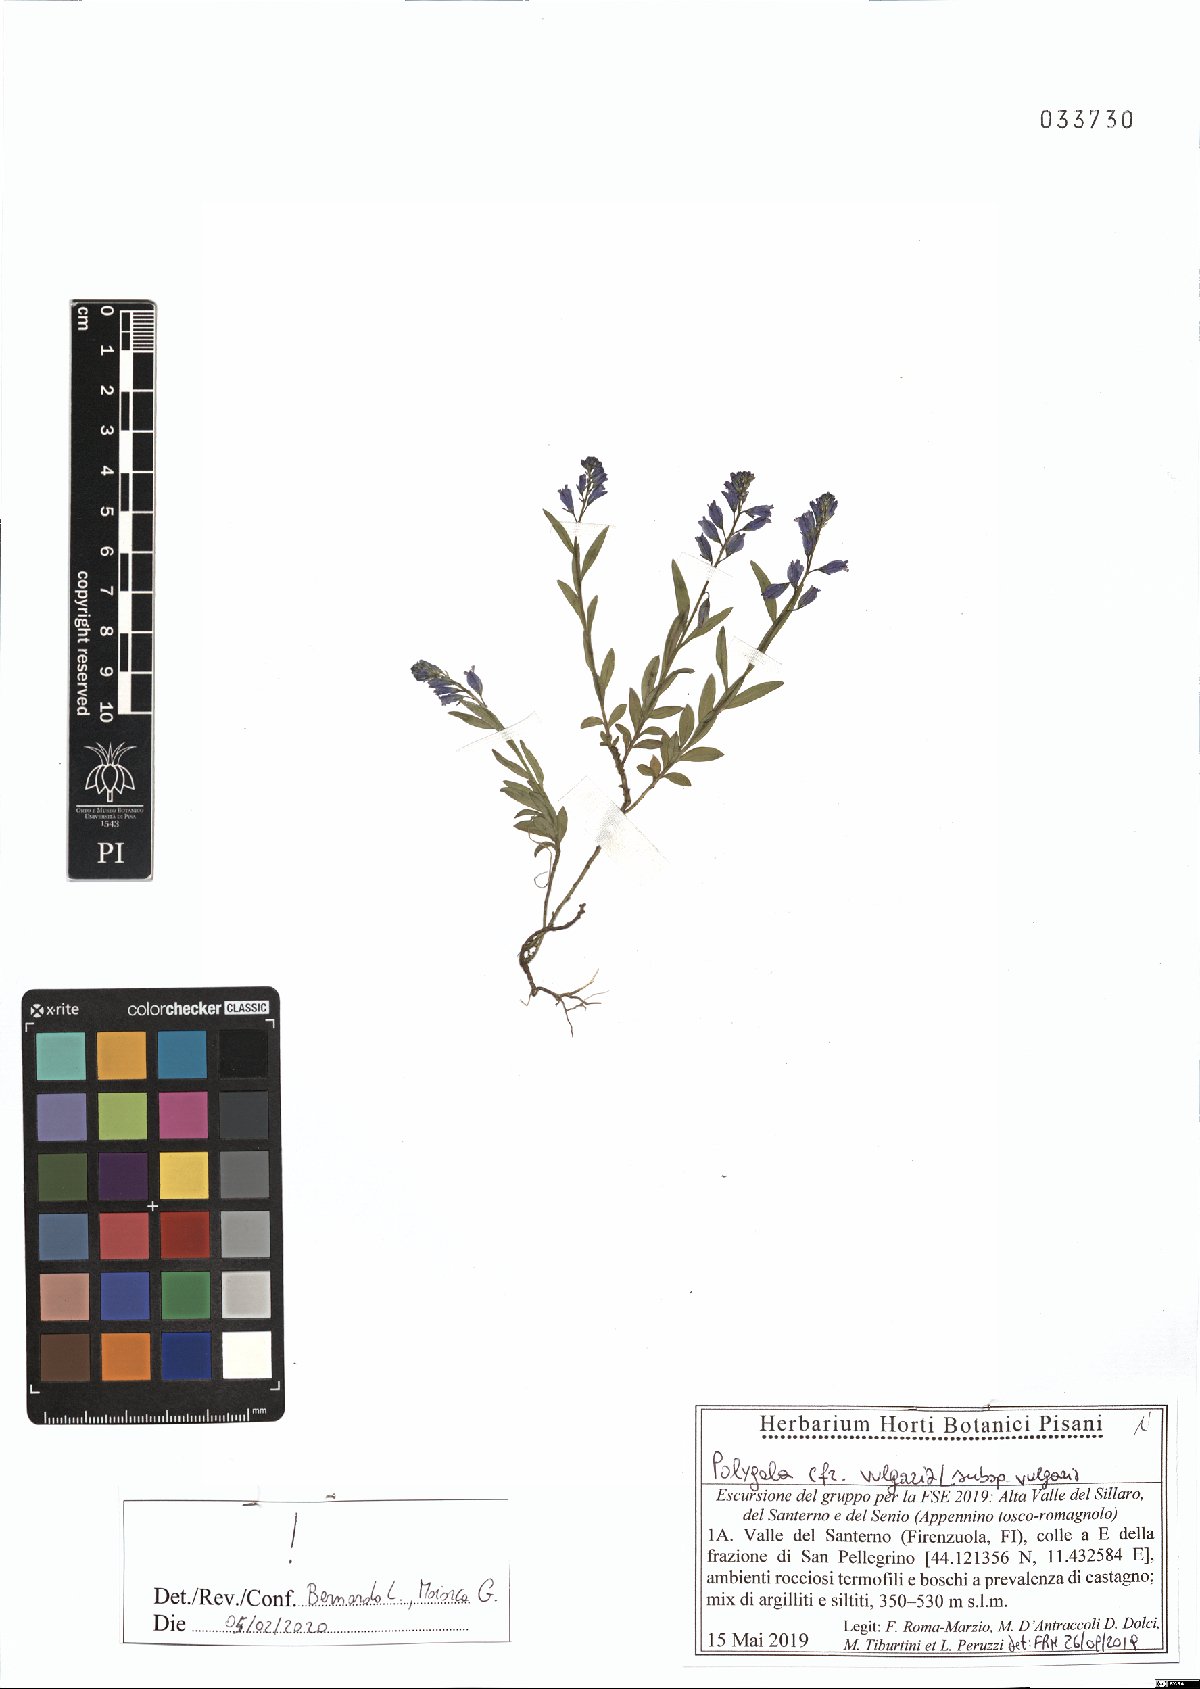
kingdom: Plantae
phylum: Tracheophyta
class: Magnoliopsida
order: Fabales
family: Polygalaceae
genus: Polygala
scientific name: Polygala vulgaris
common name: Common milkwort
